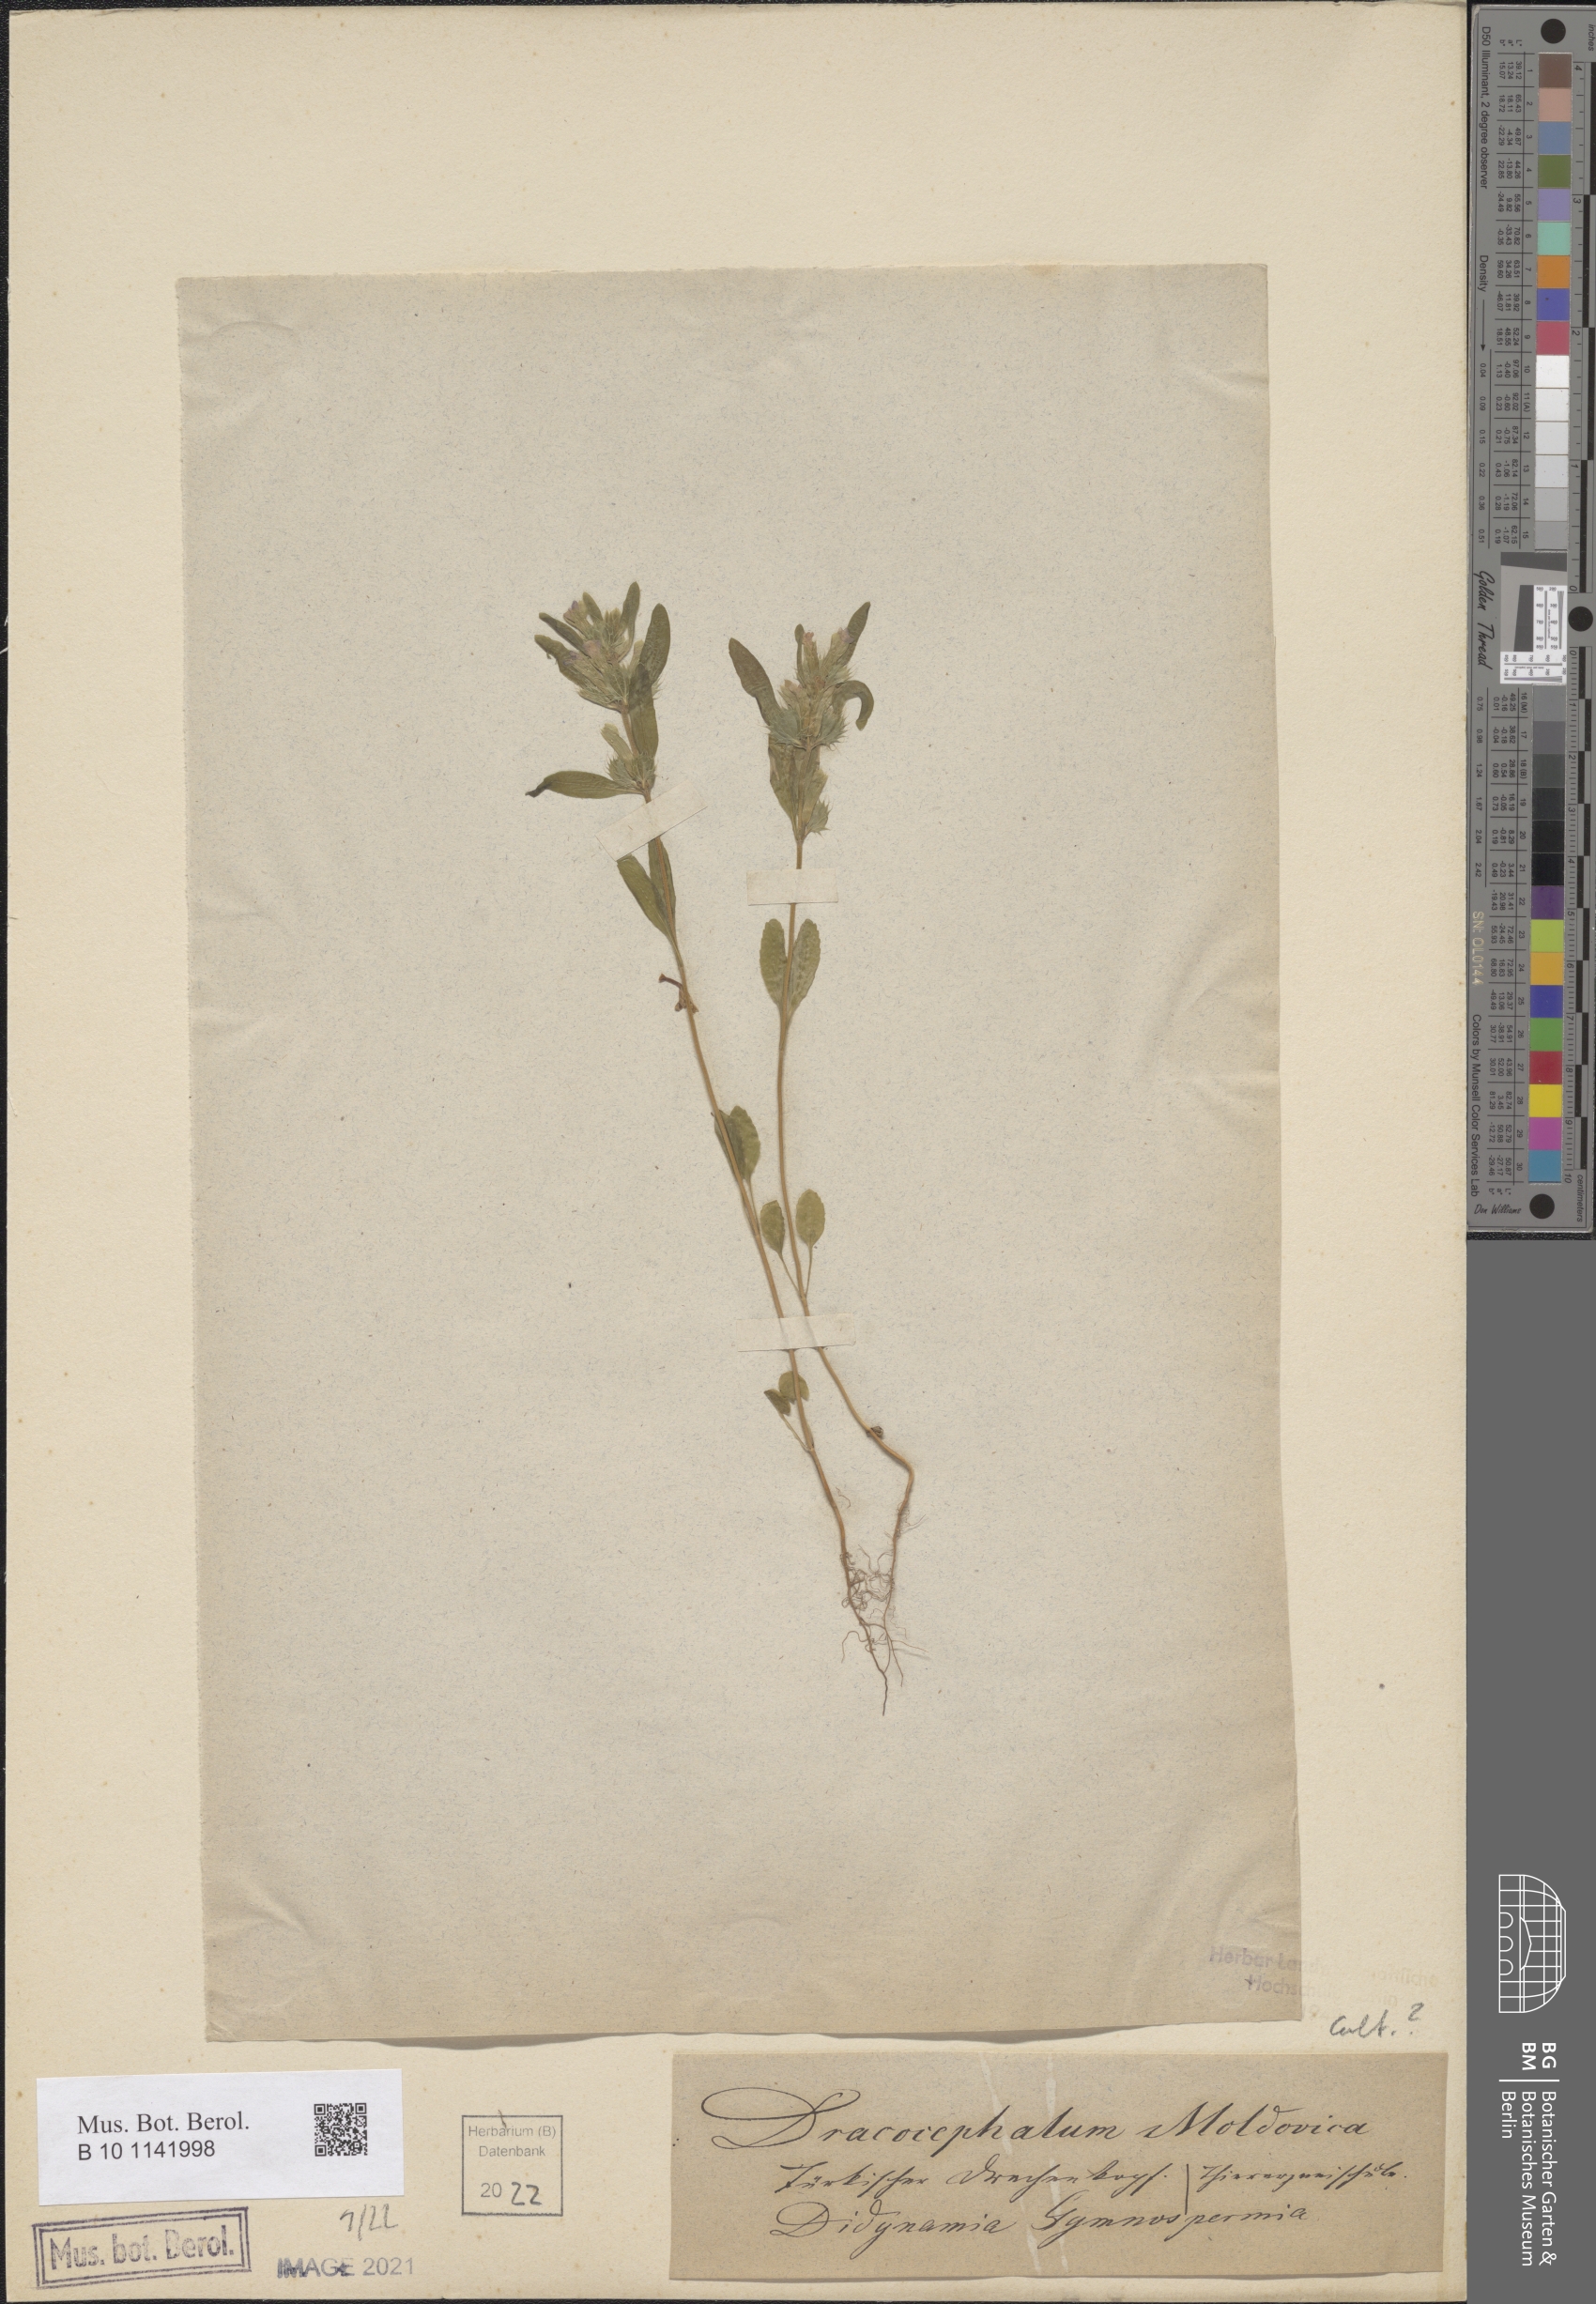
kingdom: Plantae
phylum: Tracheophyta
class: Magnoliopsida
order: Lamiales
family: Lamiaceae
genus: Dracocephalum
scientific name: Dracocephalum moldavica
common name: Moldavian dragonhead
